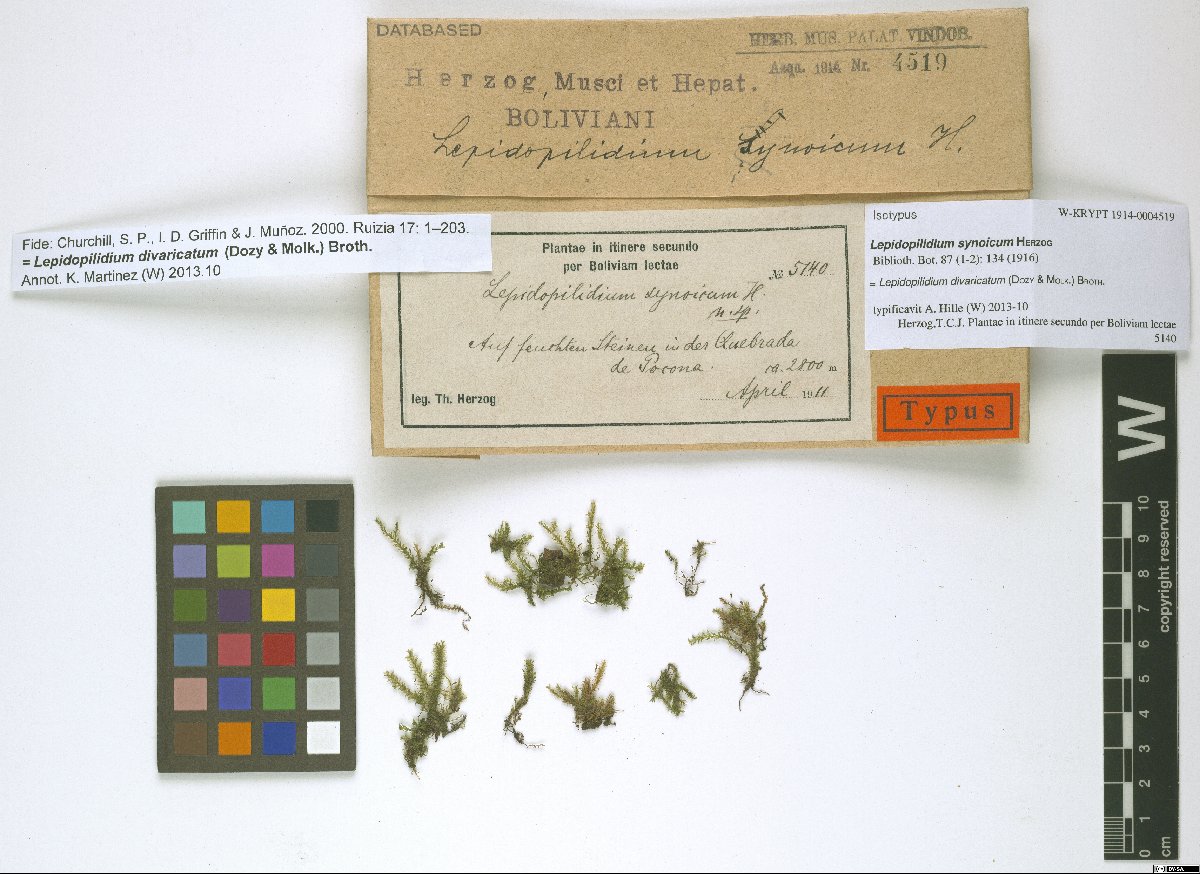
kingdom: Plantae
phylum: Bryophyta
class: Bryopsida
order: Hookeriales
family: Pilotrichaceae
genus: Lepidopilidium
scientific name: Lepidopilidium divaricatum
